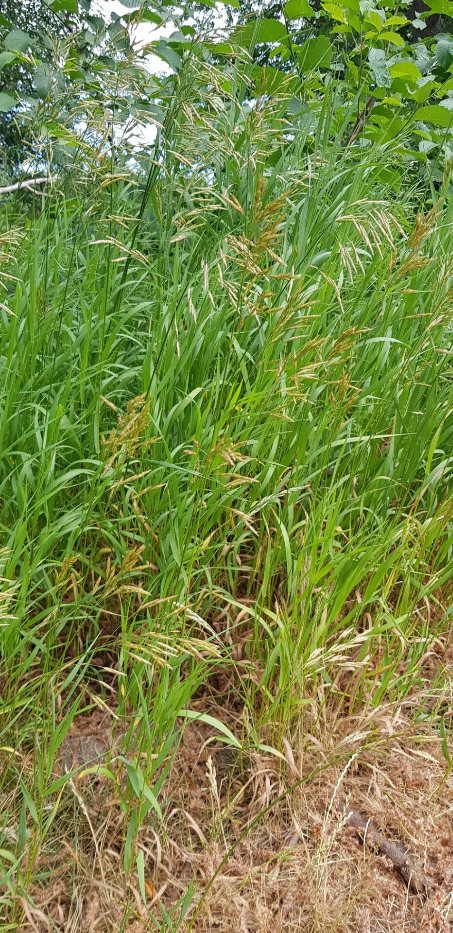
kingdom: Plantae
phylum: Tracheophyta
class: Liliopsida
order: Poales
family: Poaceae
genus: Bromus
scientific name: Bromus inermis
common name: Stakløs hejre
